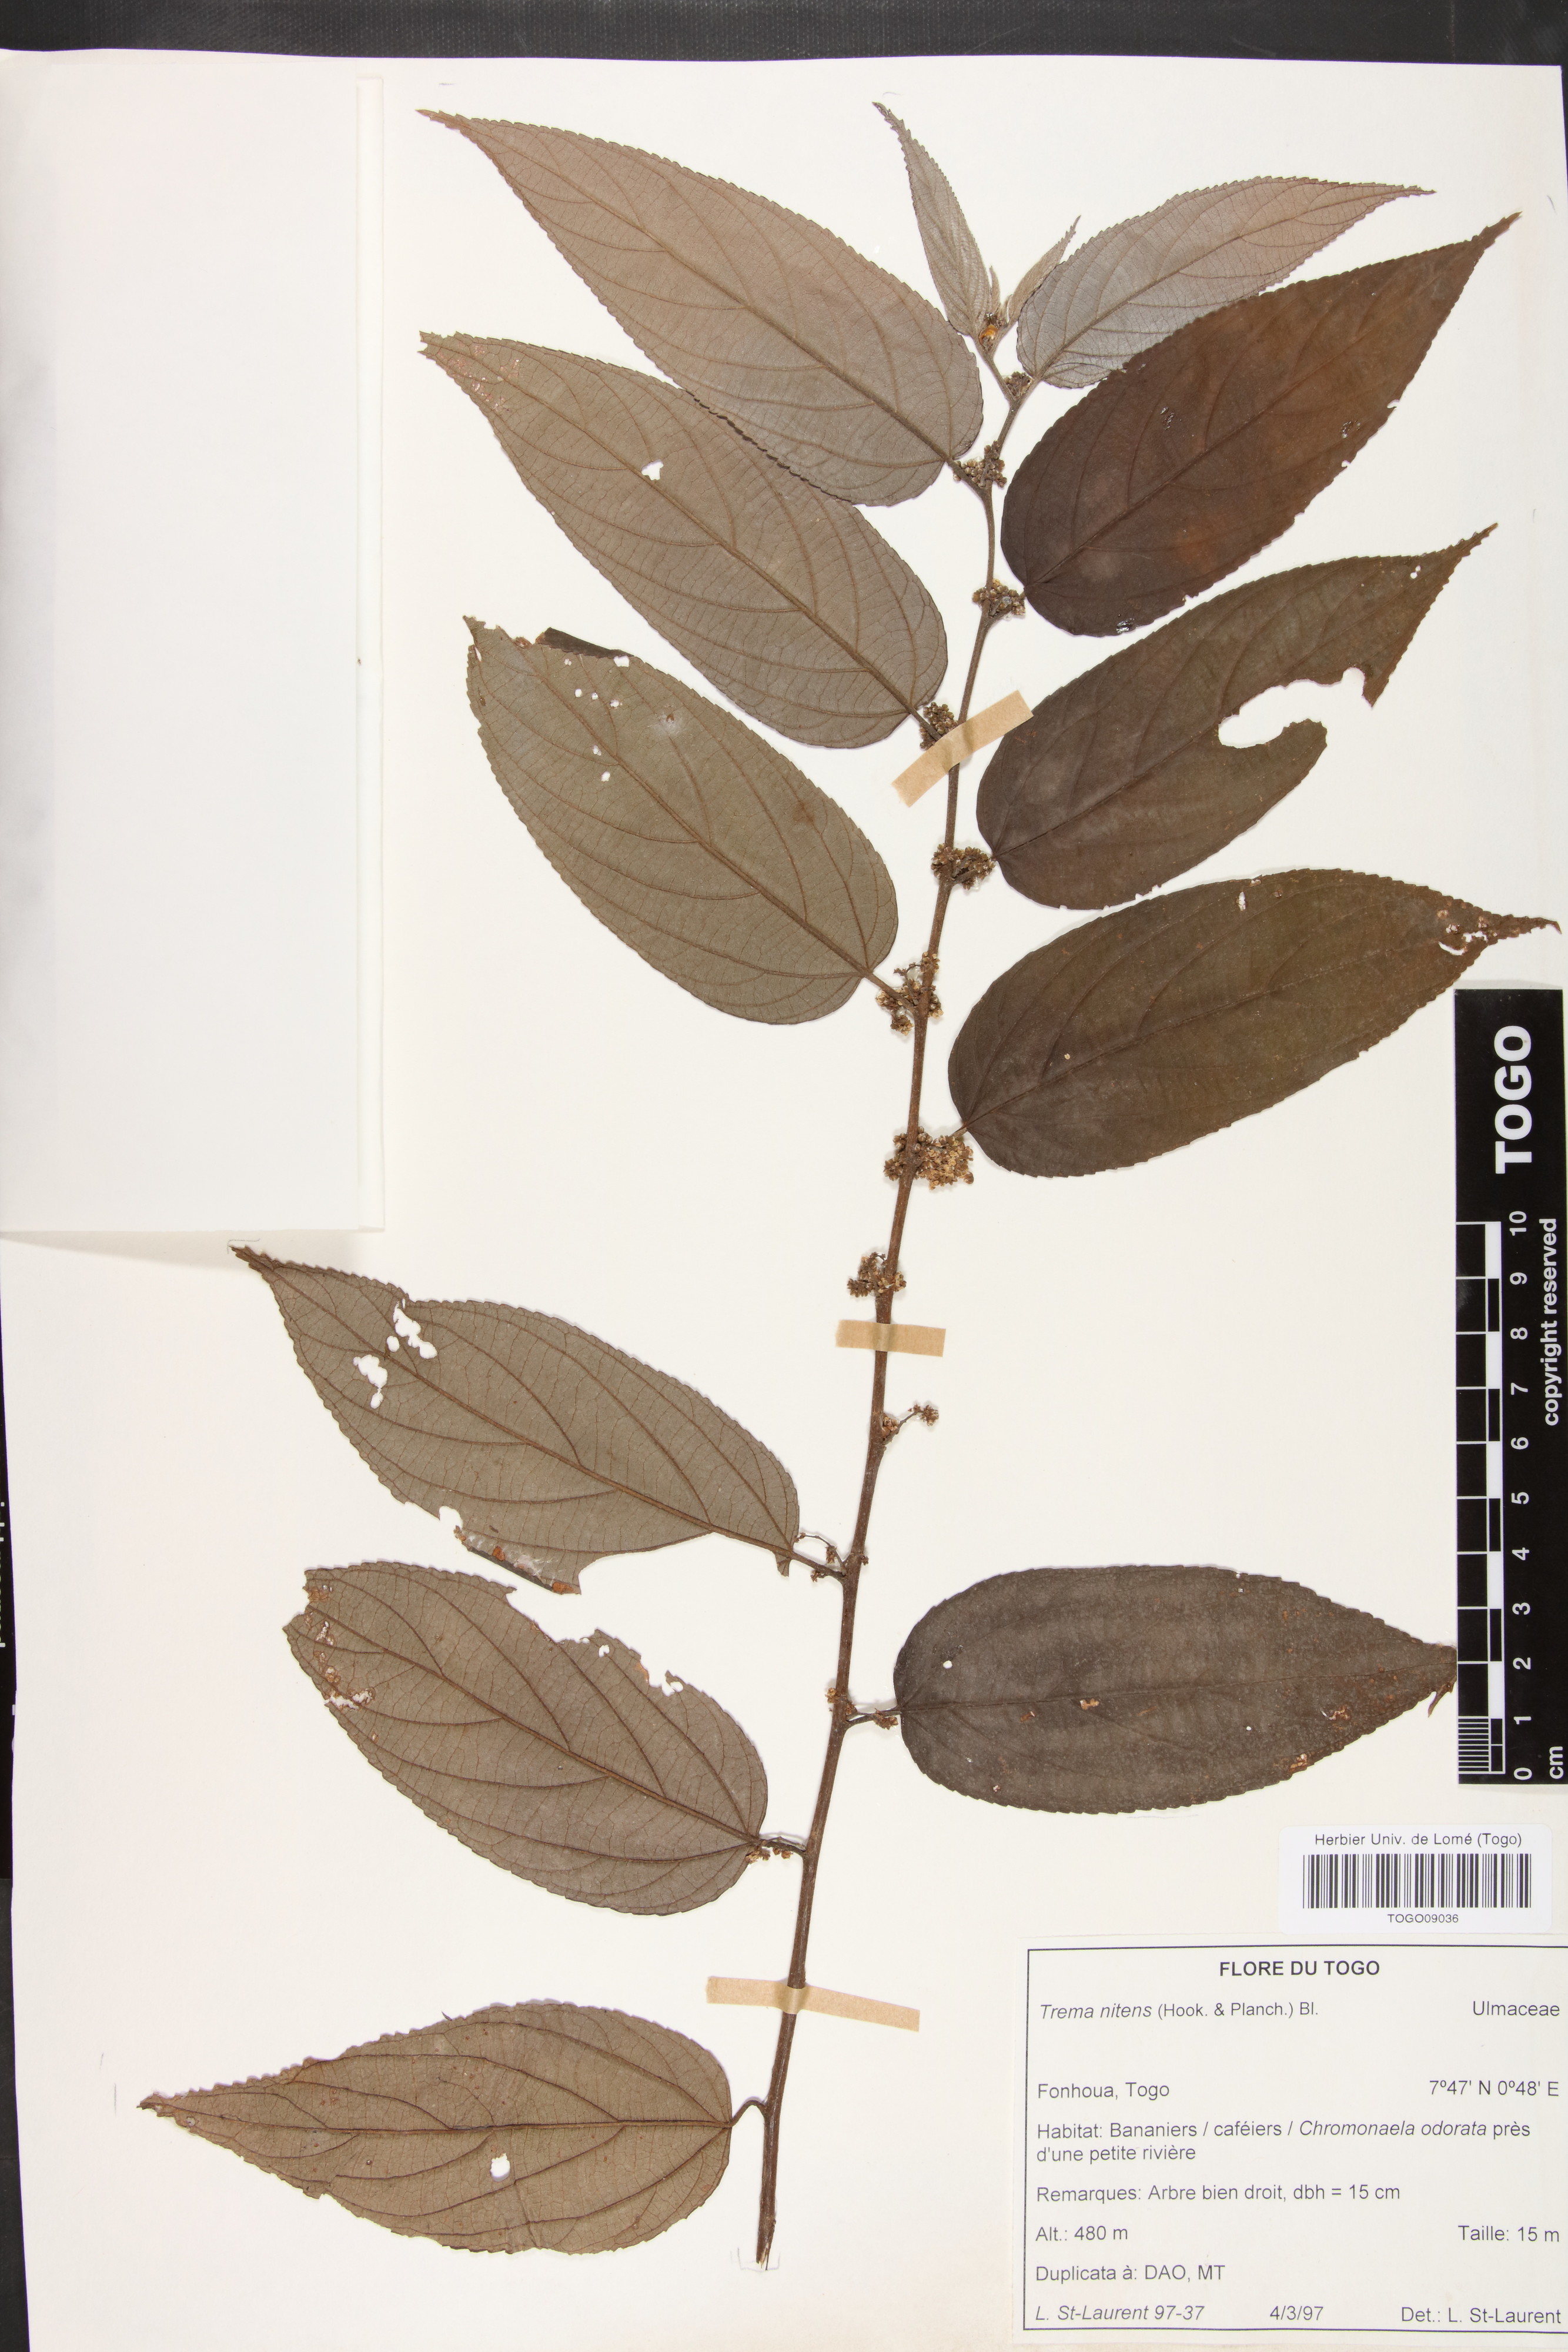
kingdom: Plantae
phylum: Tracheophyta
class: Magnoliopsida
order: Rosales
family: Cannabaceae
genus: Trema
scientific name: Trema orientale
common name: Indian charcoal tree
